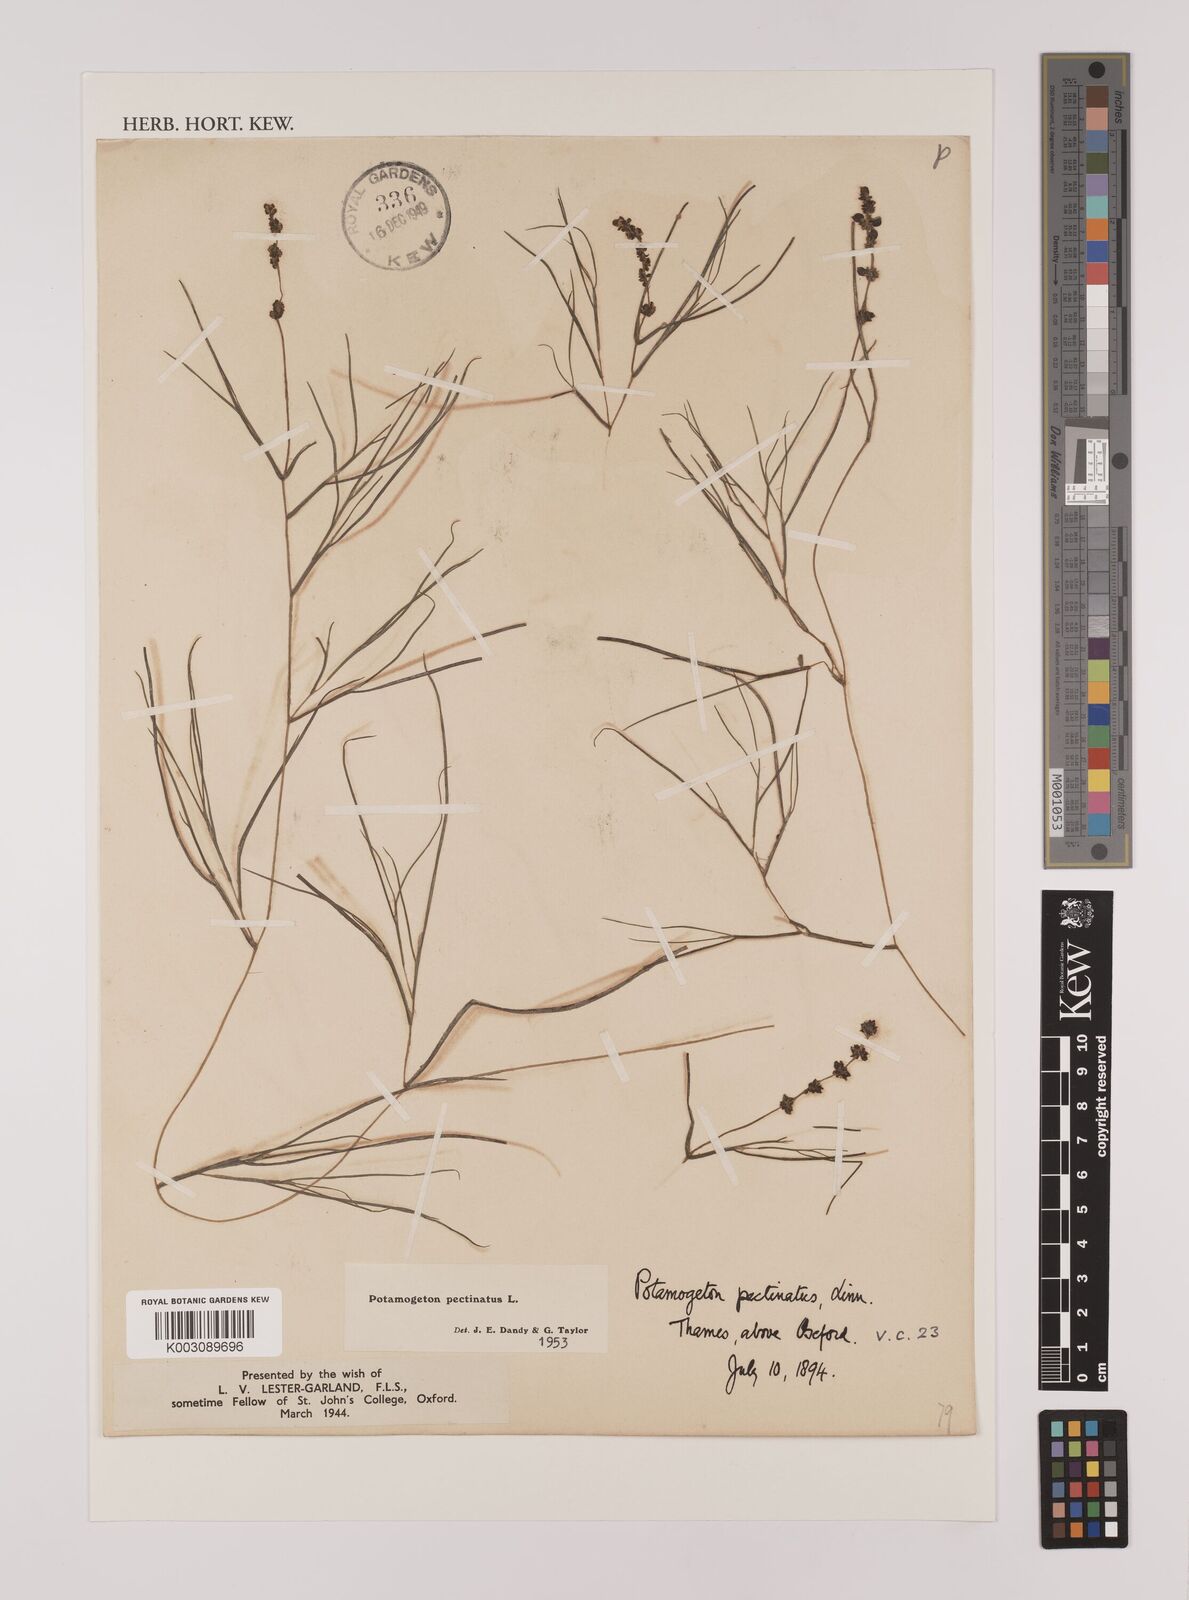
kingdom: Plantae
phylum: Tracheophyta
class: Liliopsida
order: Alismatales
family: Potamogetonaceae
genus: Stuckenia
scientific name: Stuckenia pectinata
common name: Sago pondweed
